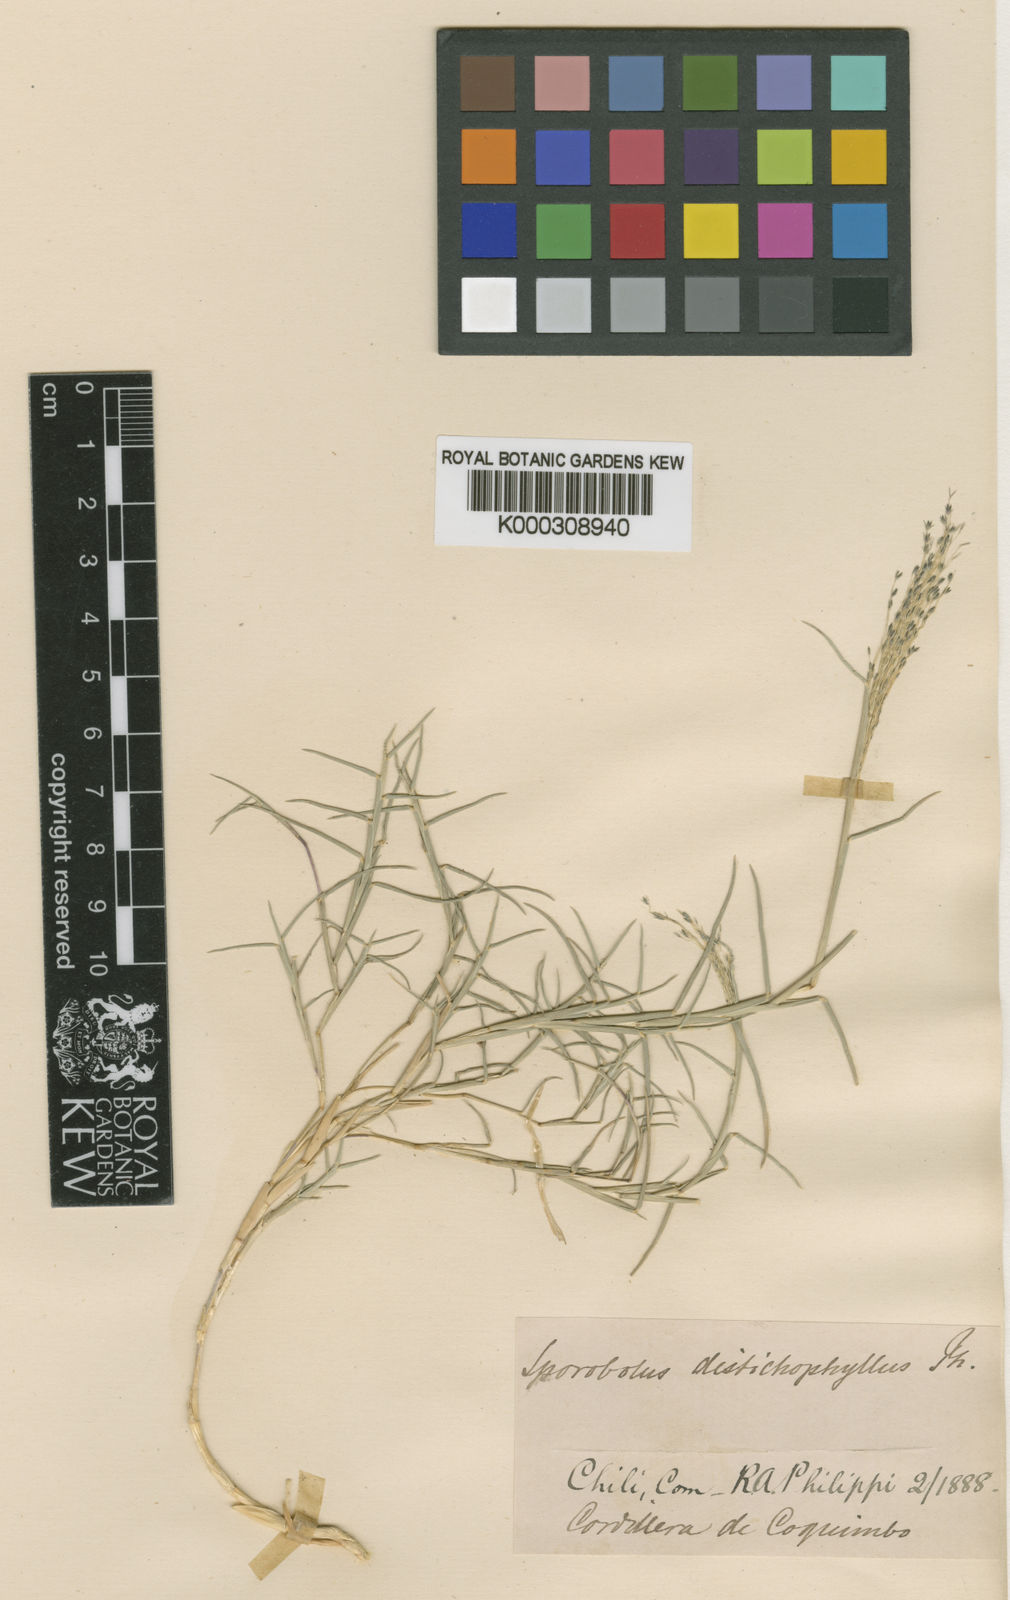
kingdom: Plantae
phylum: Tracheophyta
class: Liliopsida
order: Poales
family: Poaceae
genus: Muhlenbergia
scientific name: Muhlenbergia asperifolia
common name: Alkali muhly
